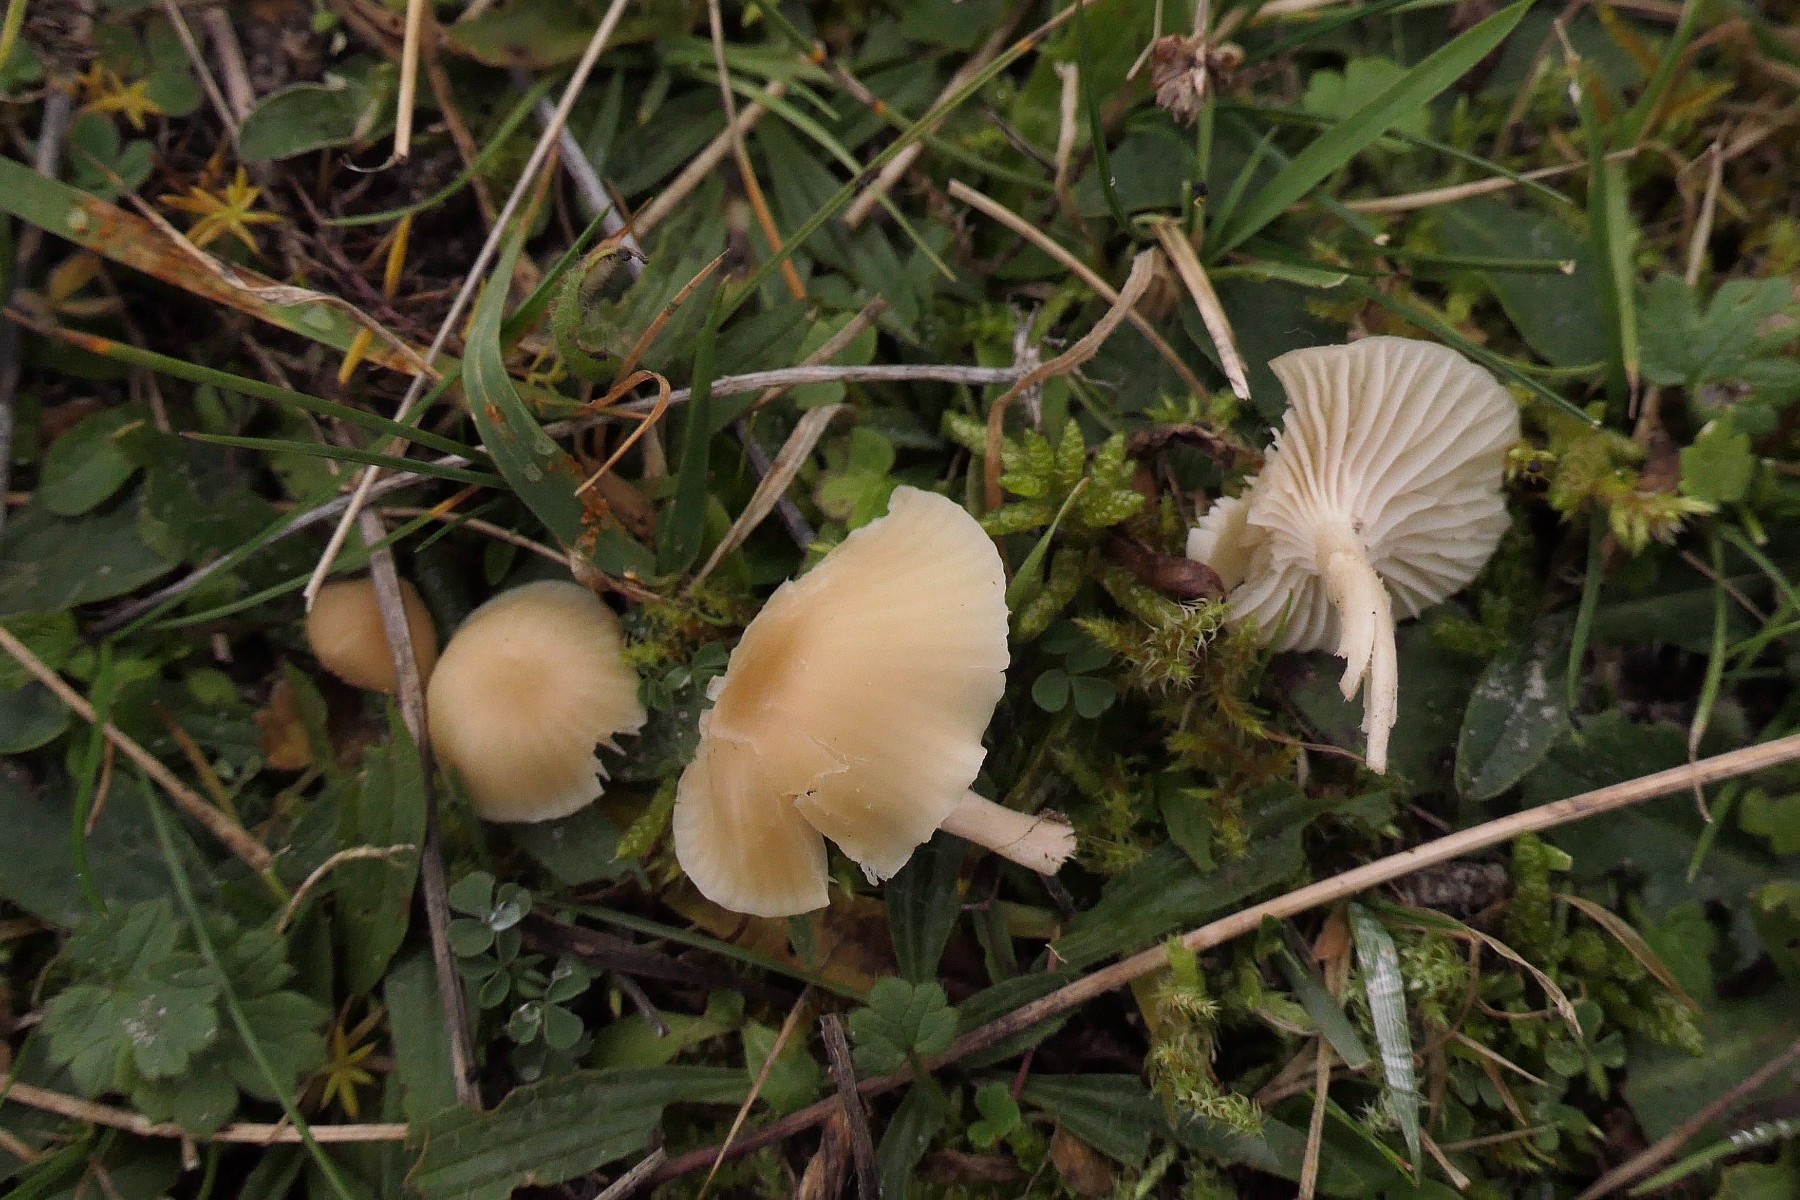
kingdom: Fungi
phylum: Basidiomycota
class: Agaricomycetes
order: Agaricales
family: Hygrophoraceae
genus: Cuphophyllus
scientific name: Cuphophyllus russocoriaceus
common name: ruslæder-vokshat
